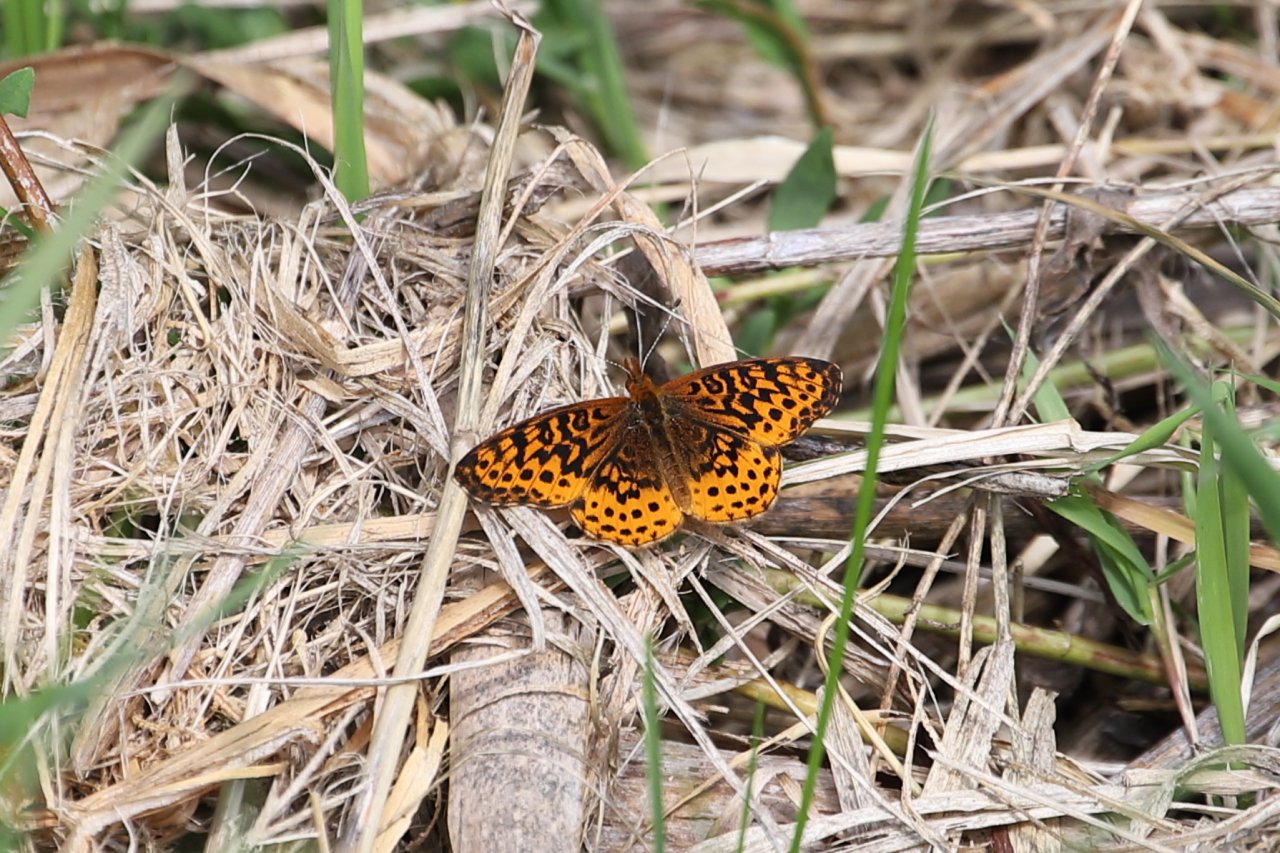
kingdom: Animalia
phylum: Arthropoda
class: Insecta
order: Lepidoptera
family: Nymphalidae
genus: Clossiana
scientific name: Clossiana toddi
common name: Meadow Fritillary
